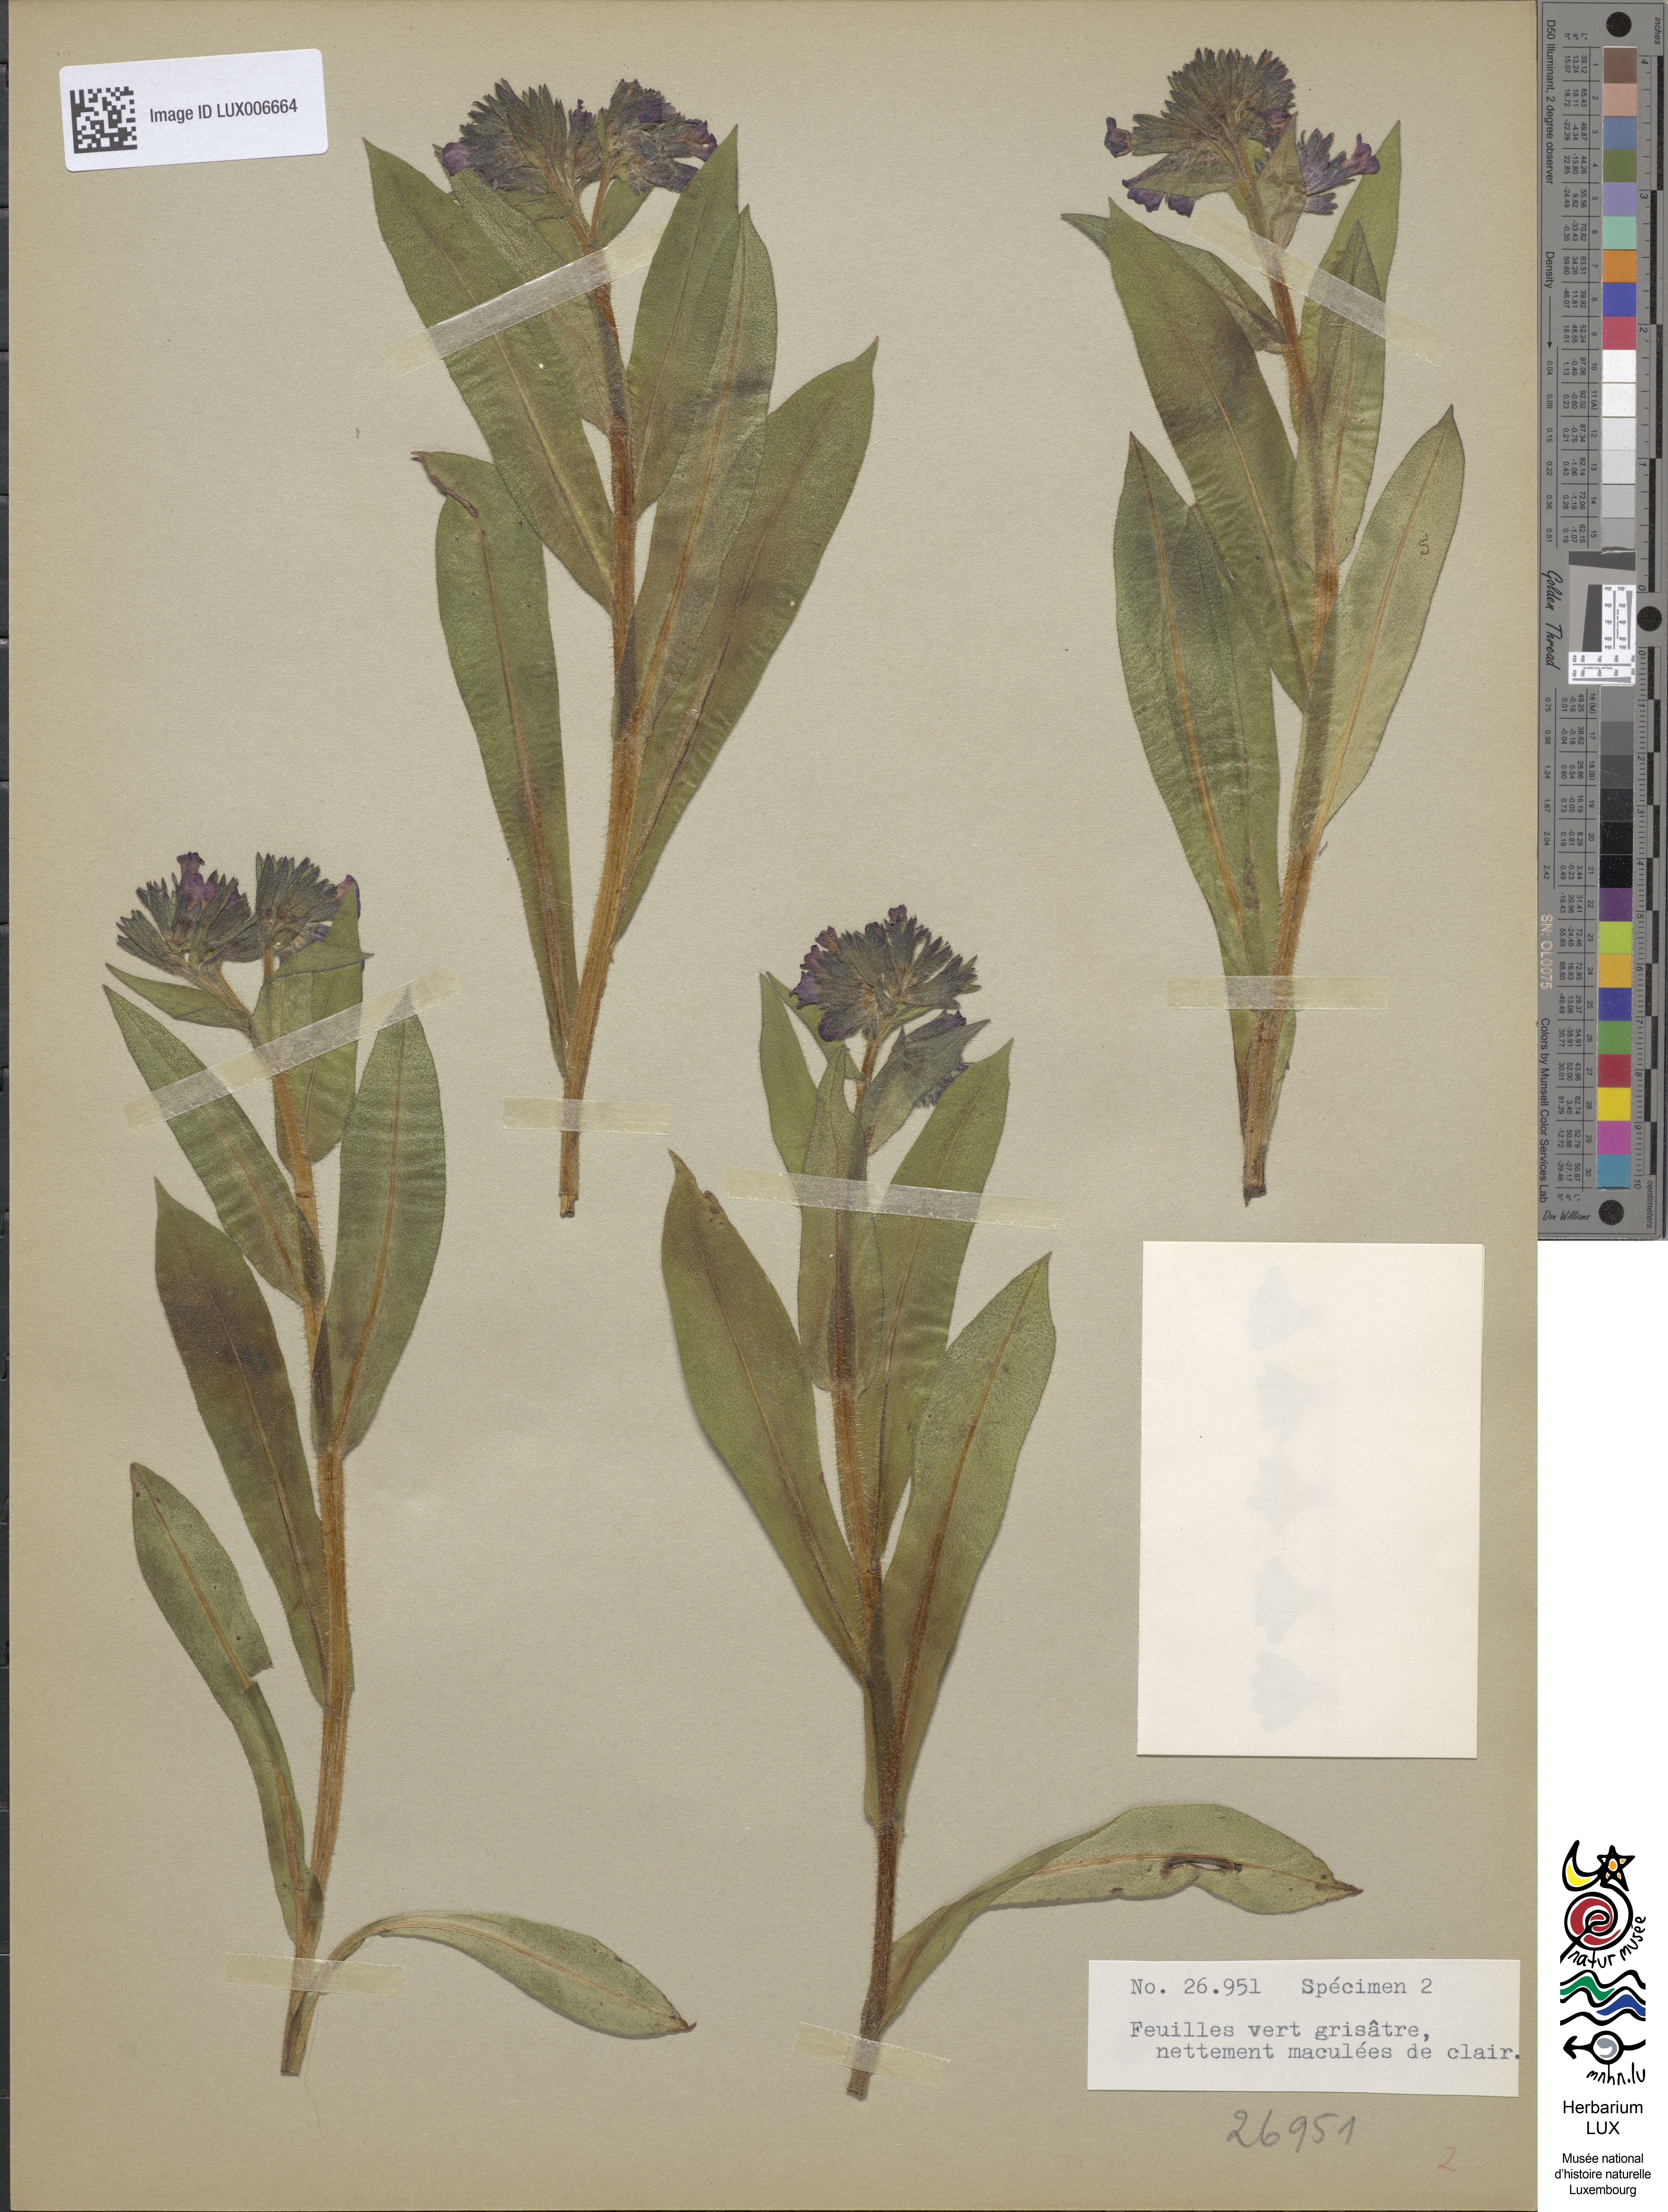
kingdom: Plantae
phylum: Tracheophyta
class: Magnoliopsida
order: Boraginales
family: Boraginaceae
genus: Pulmonaria
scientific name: Pulmonaria montana
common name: Mountain lungwort
